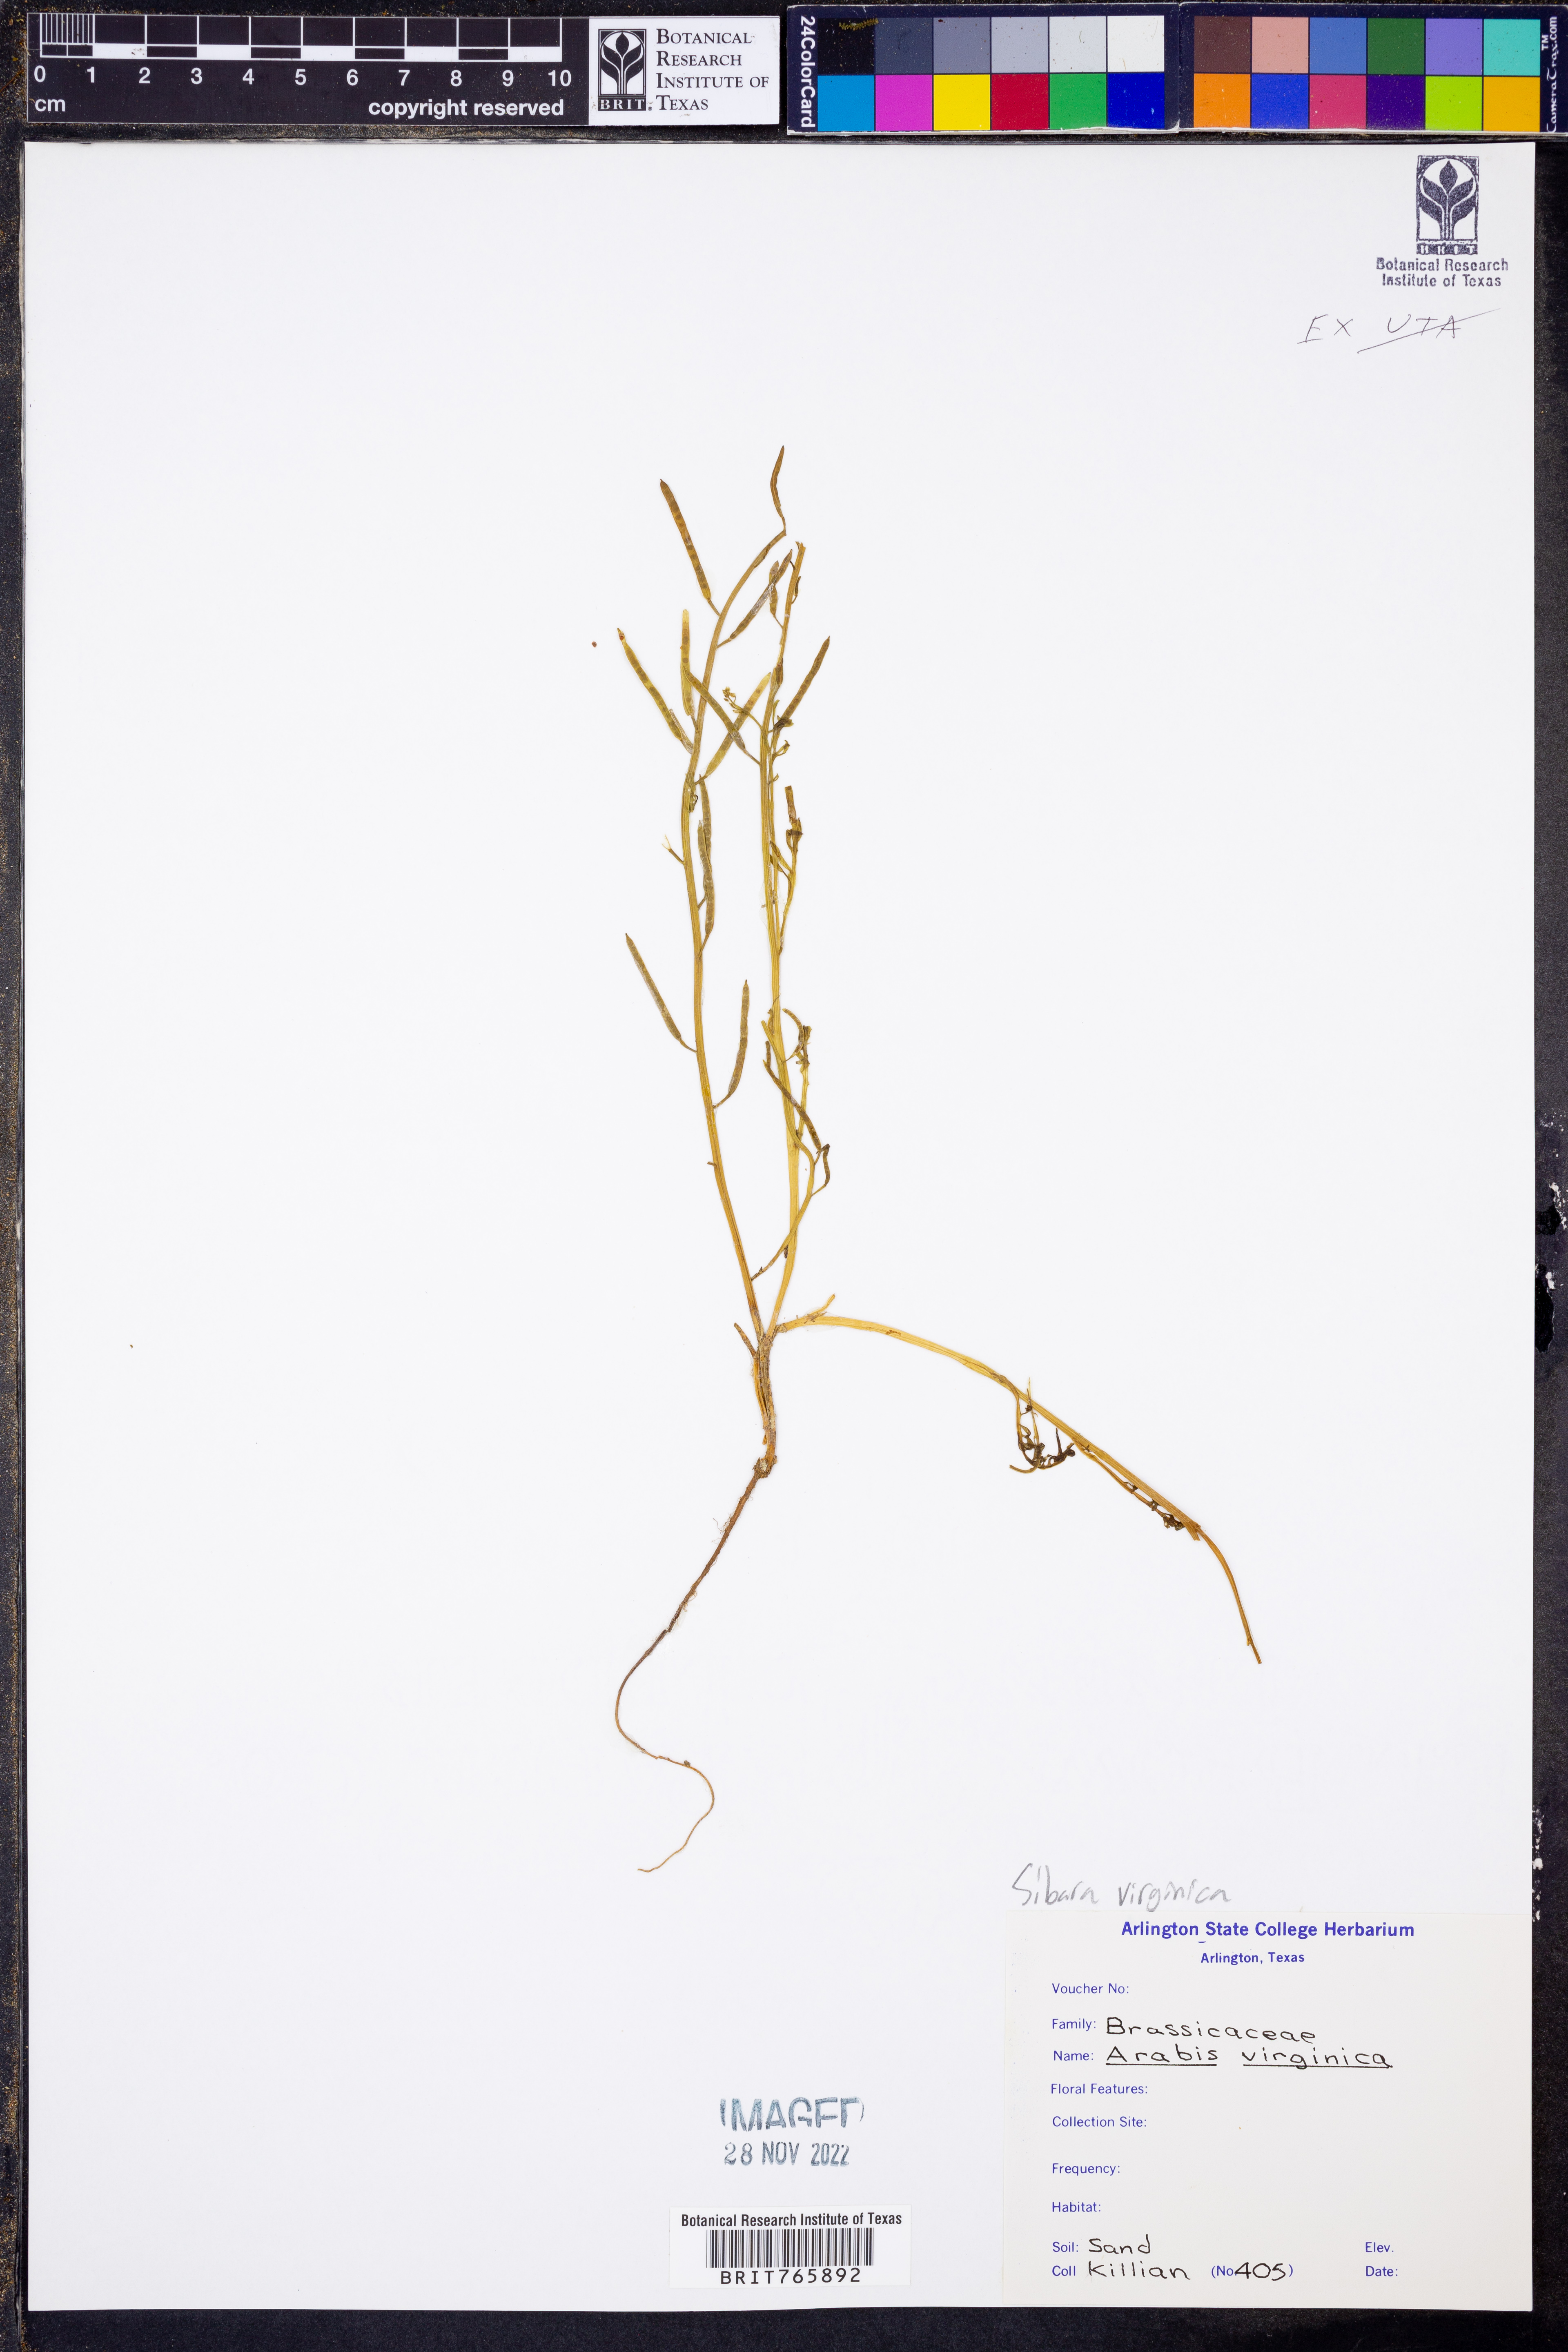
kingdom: Plantae
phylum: Tracheophyta
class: Magnoliopsida
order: Brassicales
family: Brassicaceae
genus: Planodes
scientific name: Planodes virginicum
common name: Virginia cress
